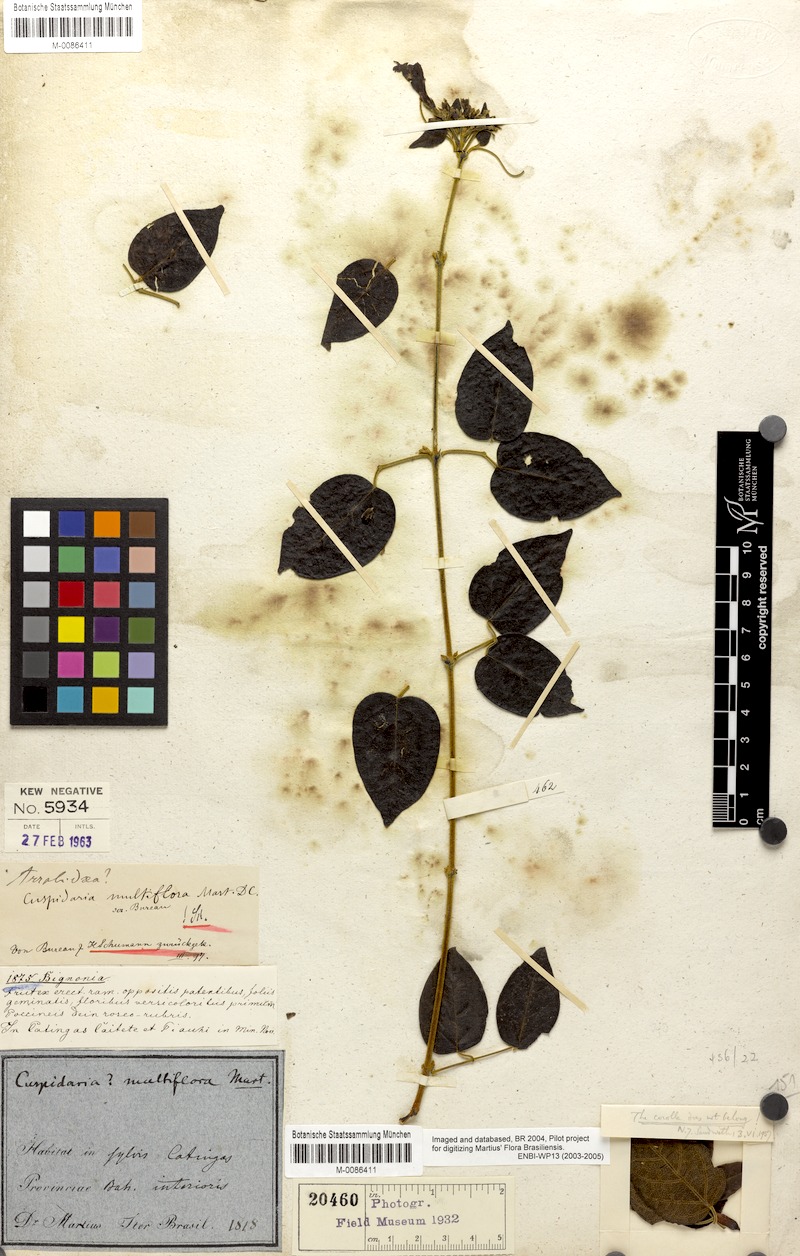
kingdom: Plantae
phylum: Tracheophyta
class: Magnoliopsida
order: Lamiales
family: Bignoniaceae
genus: Cuspidaria
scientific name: Cuspidaria multiflora
